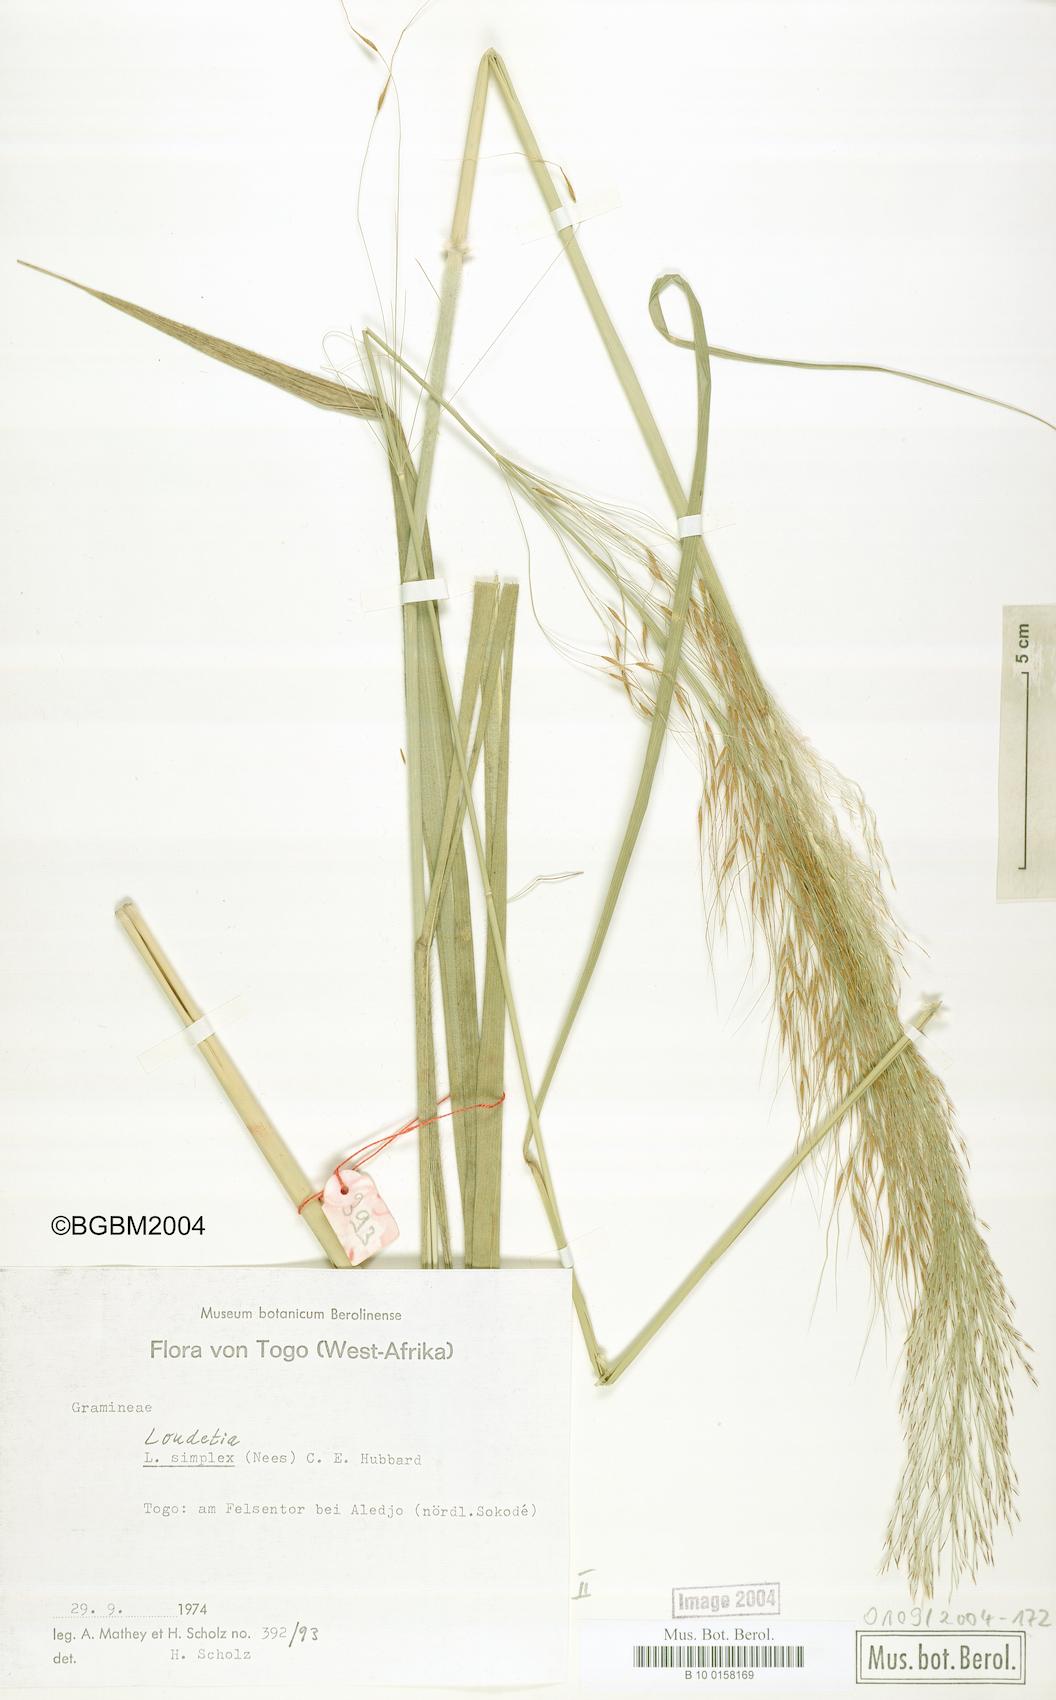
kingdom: Plantae
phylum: Tracheophyta
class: Liliopsida
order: Poales
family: Poaceae
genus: Loudetia
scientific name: Loudetia simplex
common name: Common russet grass
